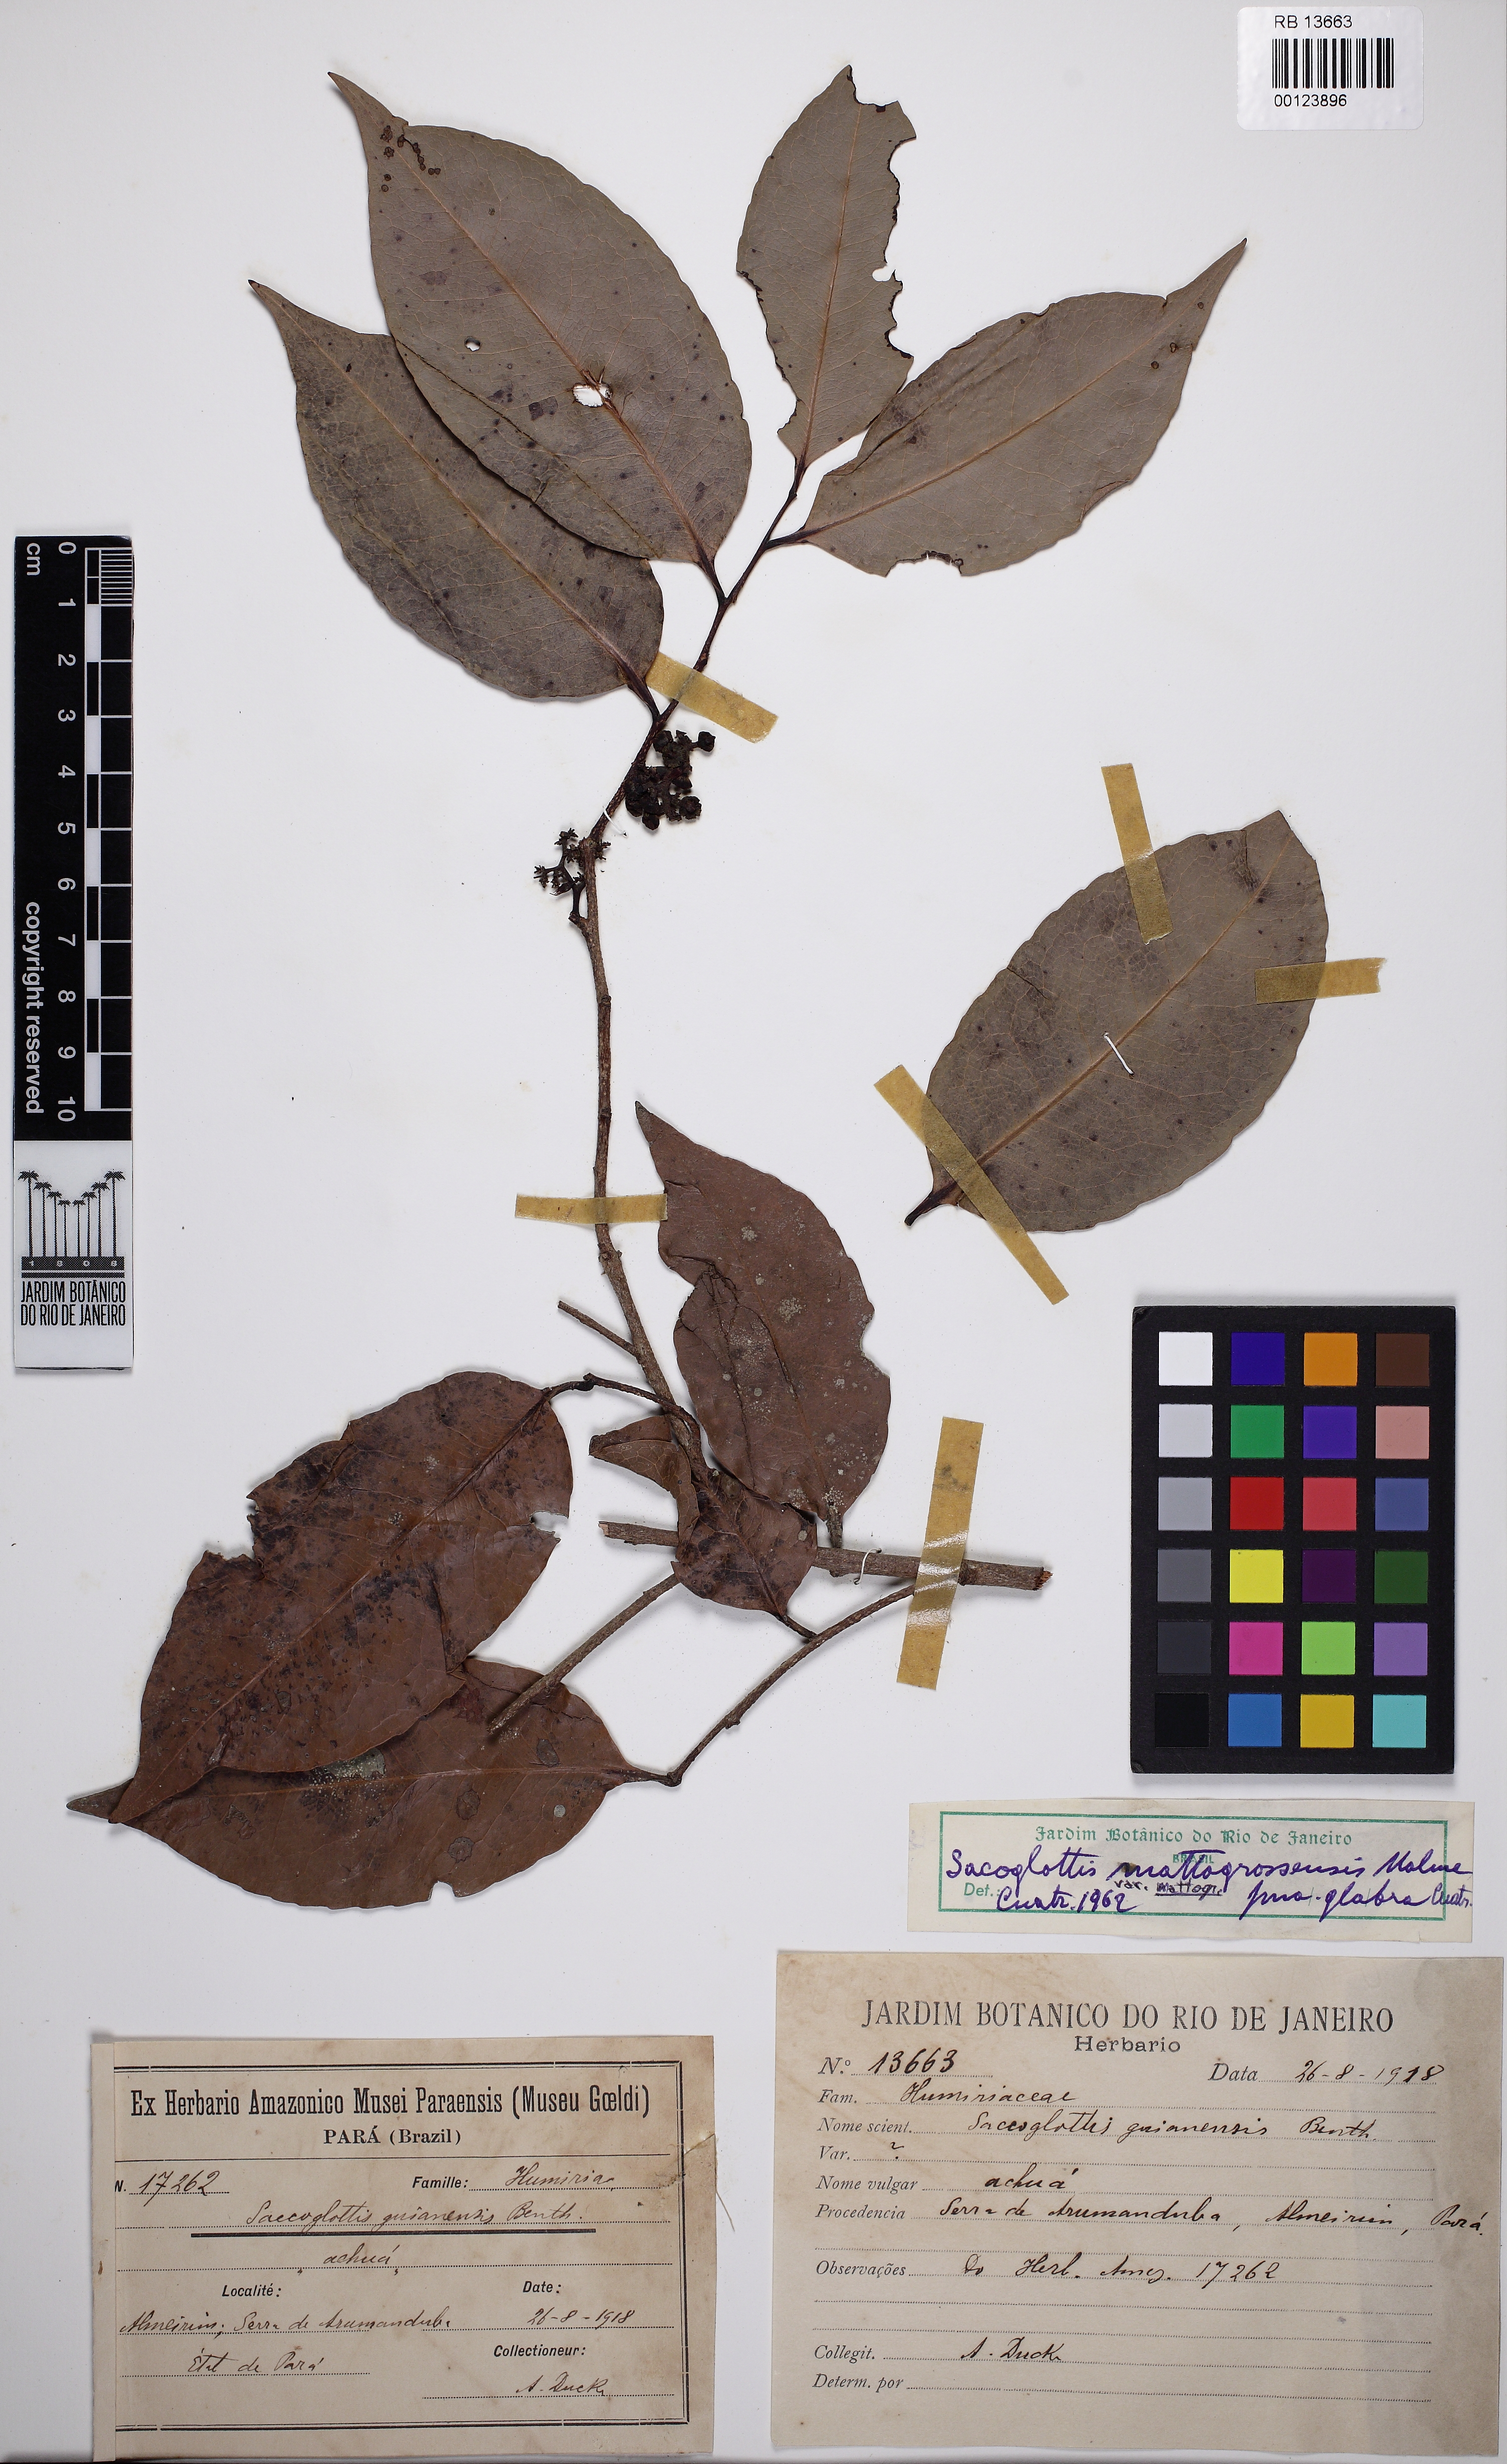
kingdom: Plantae
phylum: Tracheophyta
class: Magnoliopsida
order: Malpighiales
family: Humiriaceae
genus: Sacoglottis
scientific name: Sacoglottis mattogrossensis
